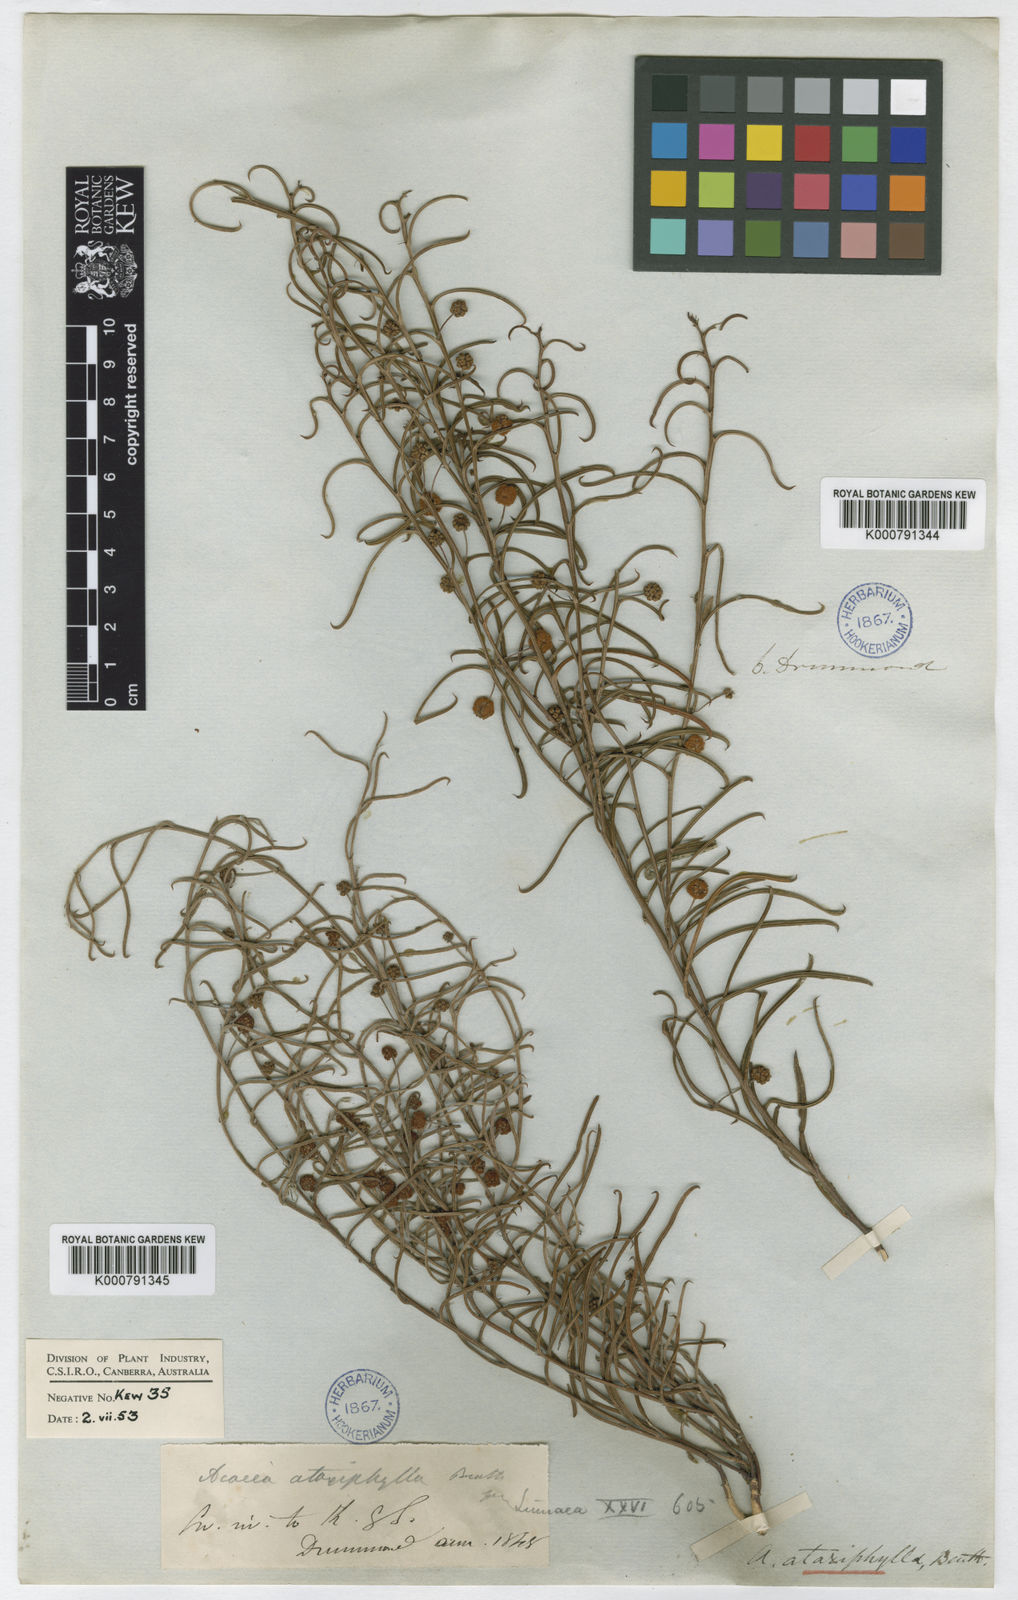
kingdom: Plantae
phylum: Tracheophyta
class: Magnoliopsida
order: Fabales
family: Fabaceae
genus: Acacia
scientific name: Acacia ataxiphylla
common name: Large-fruited tammin wattle
